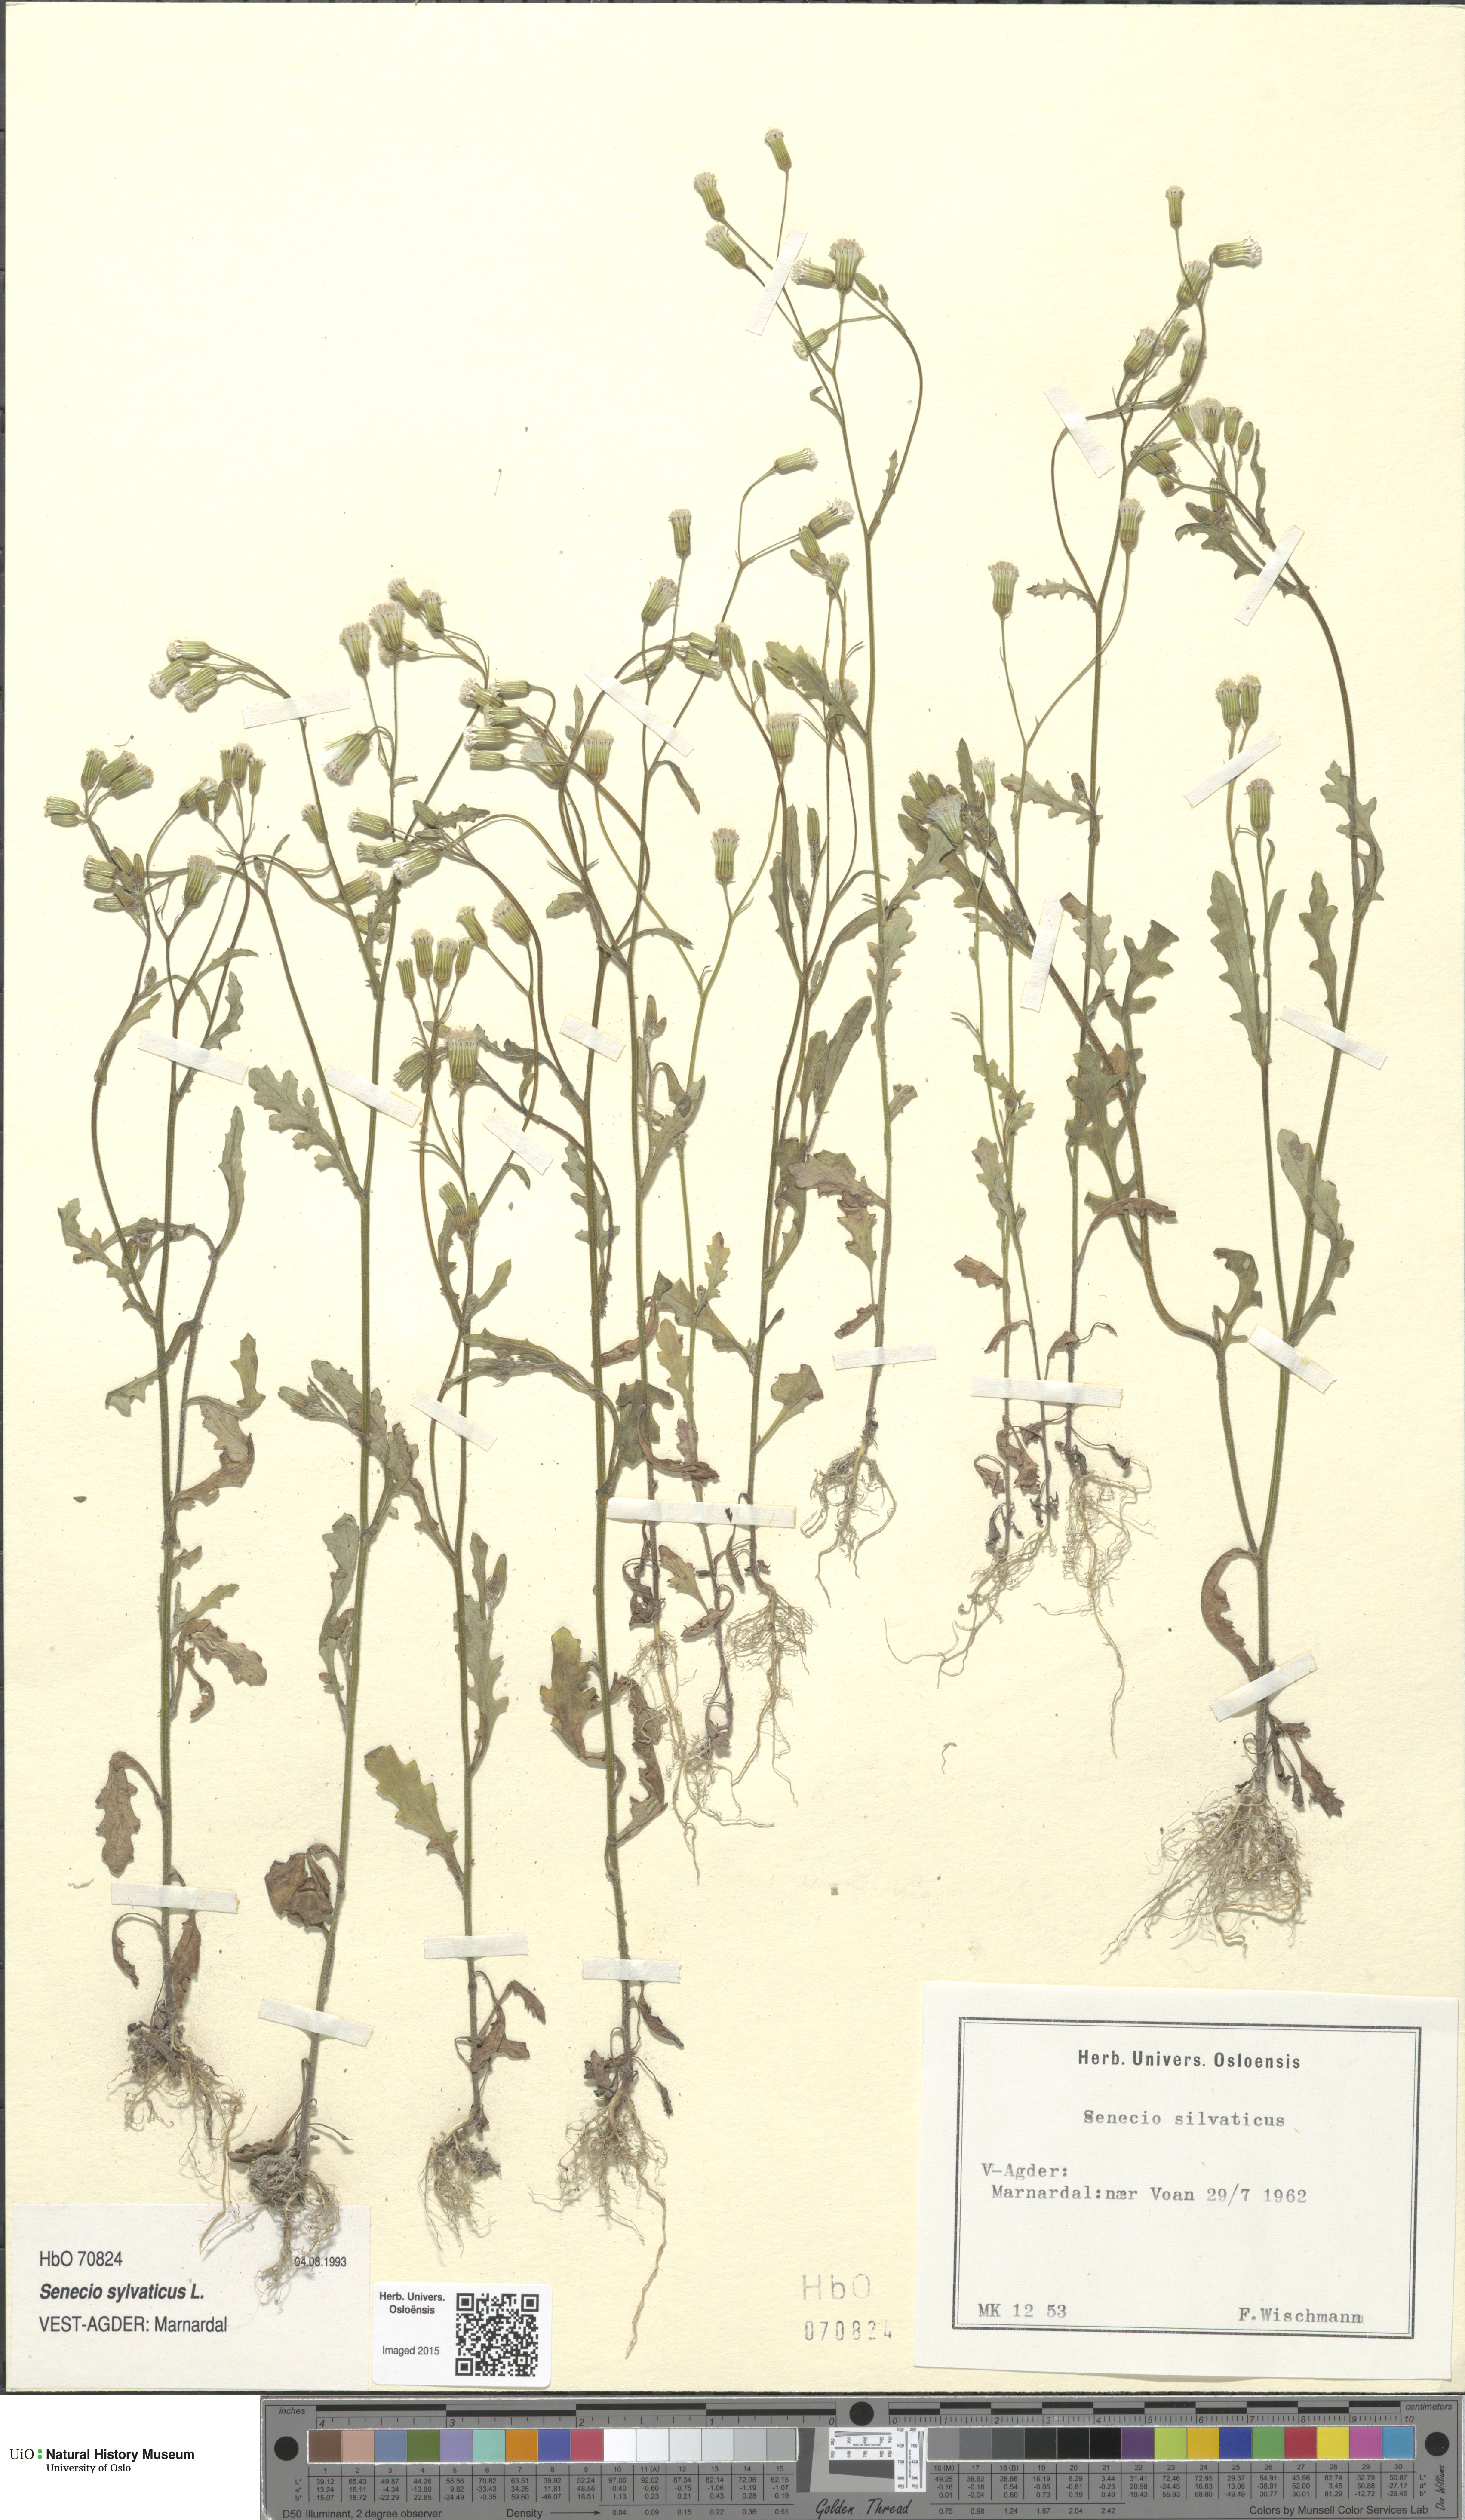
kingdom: Plantae
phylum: Tracheophyta
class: Magnoliopsida
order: Asterales
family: Asteraceae
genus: Senecio
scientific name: Senecio sylvaticus
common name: Woodland ragwort
